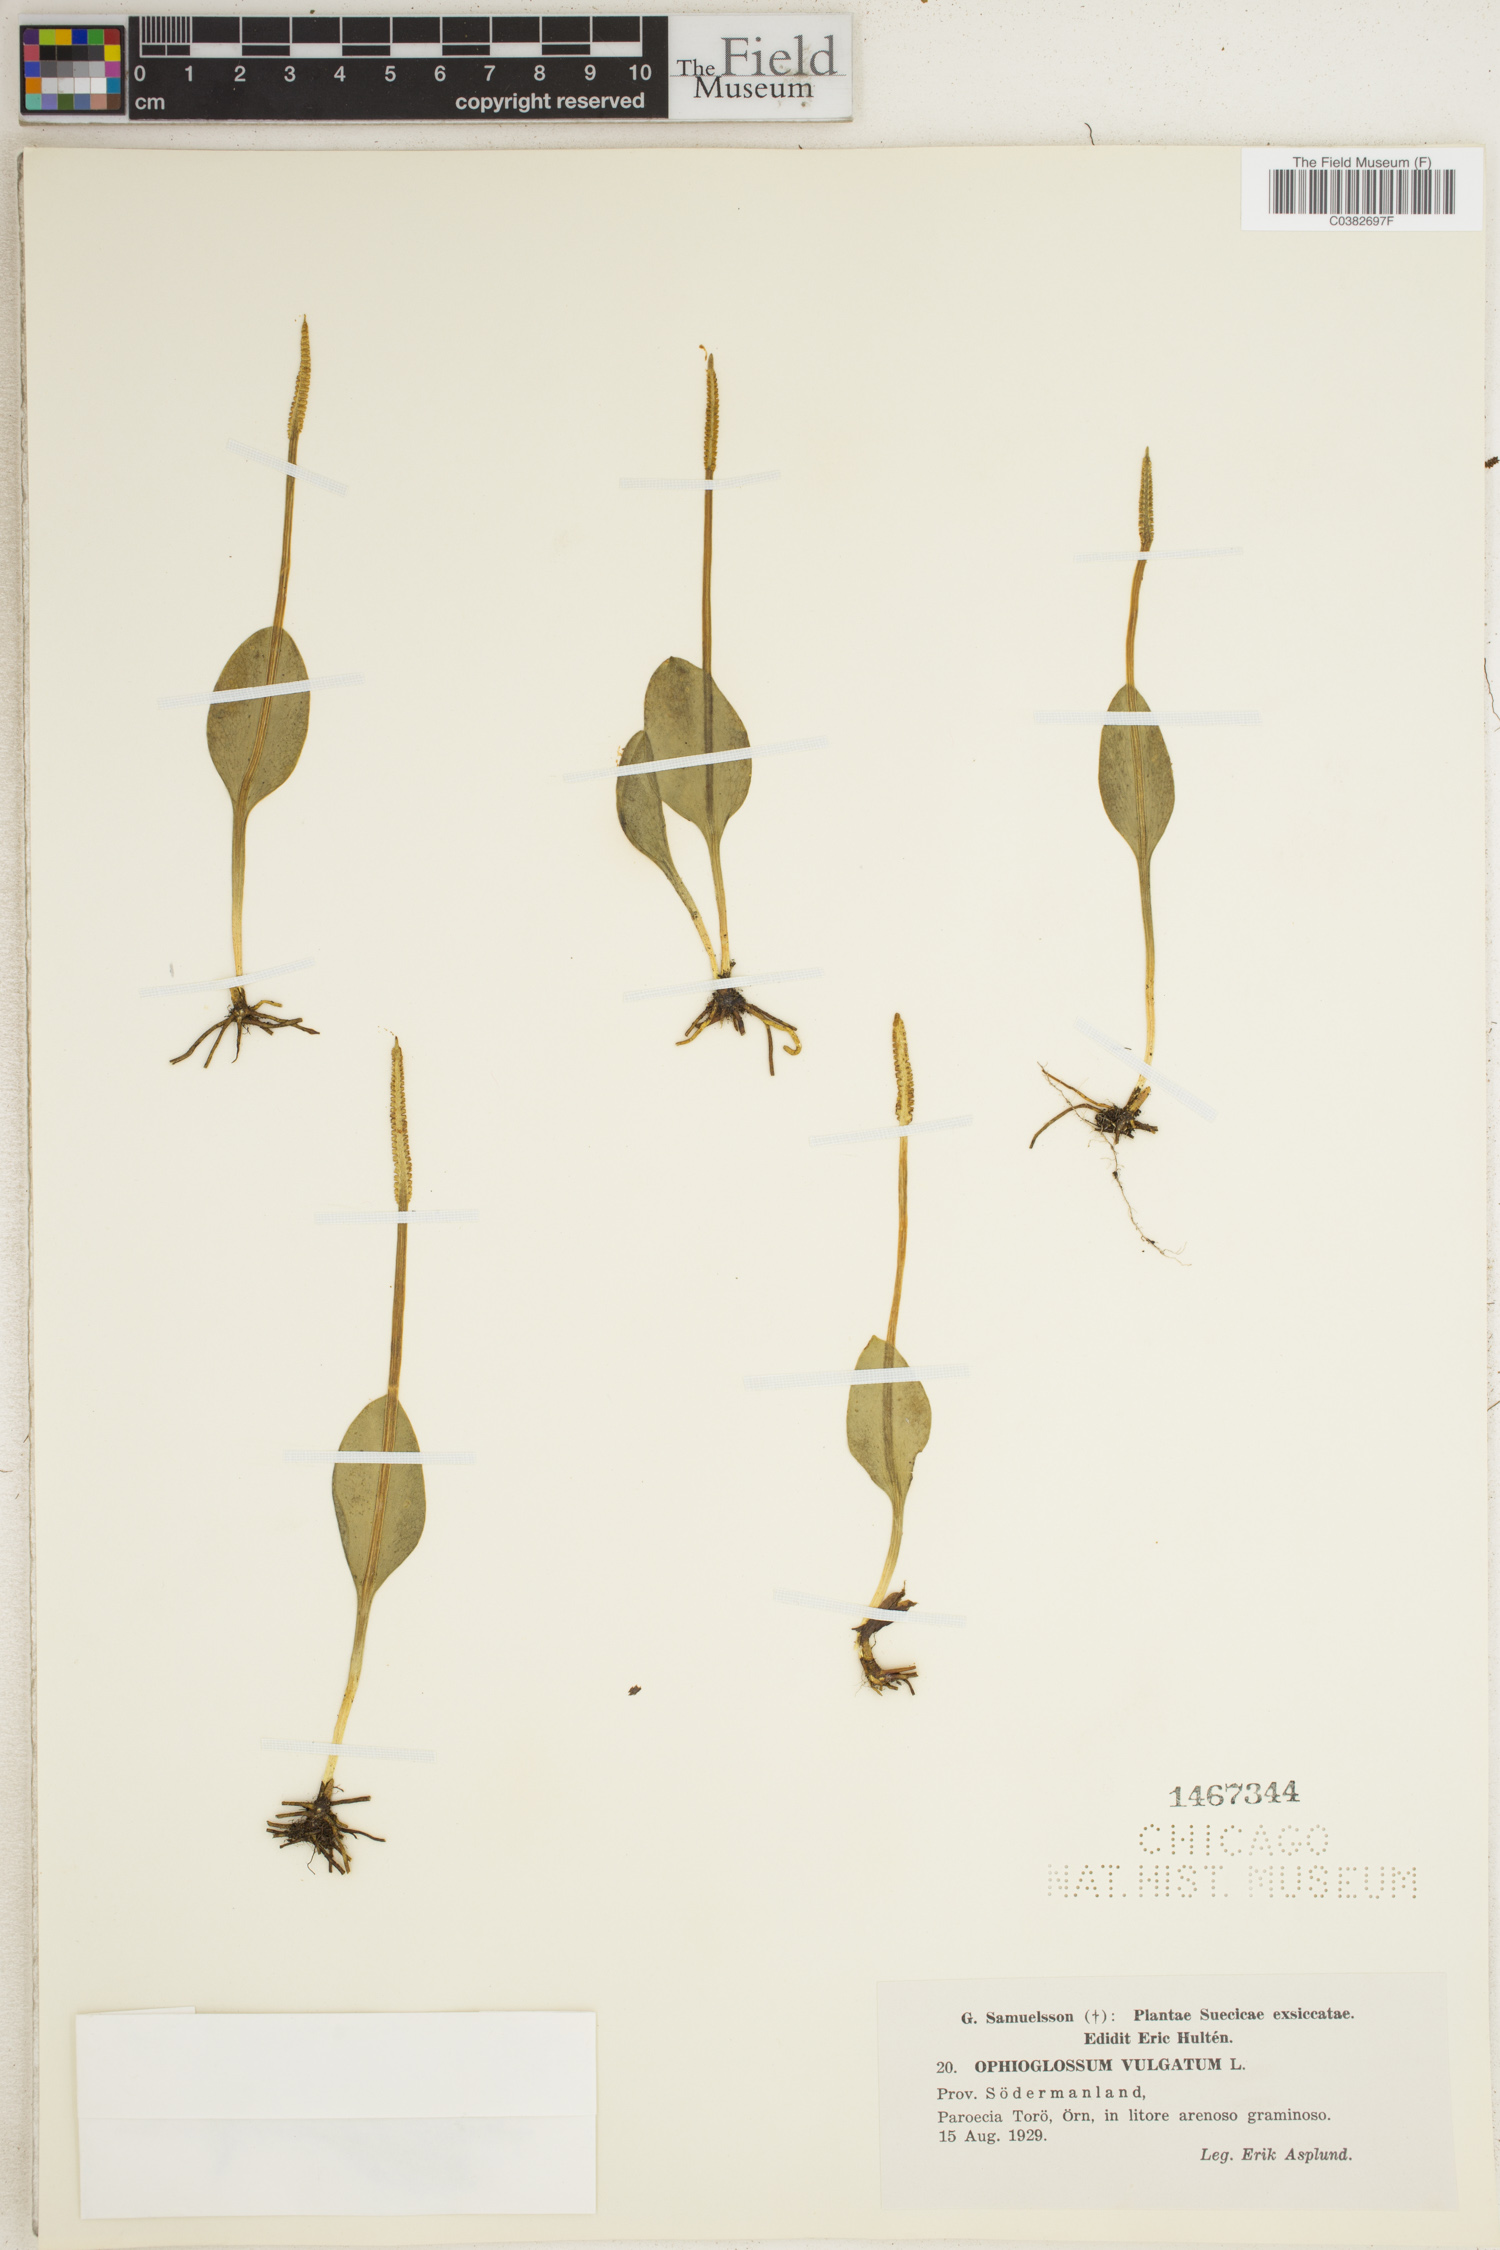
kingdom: Plantae
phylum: Tracheophyta
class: Polypodiopsida
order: Ophioglossales
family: Ophioglossaceae
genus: Ophioglossum
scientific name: Ophioglossum vulgatum
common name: Adder's-tongue
